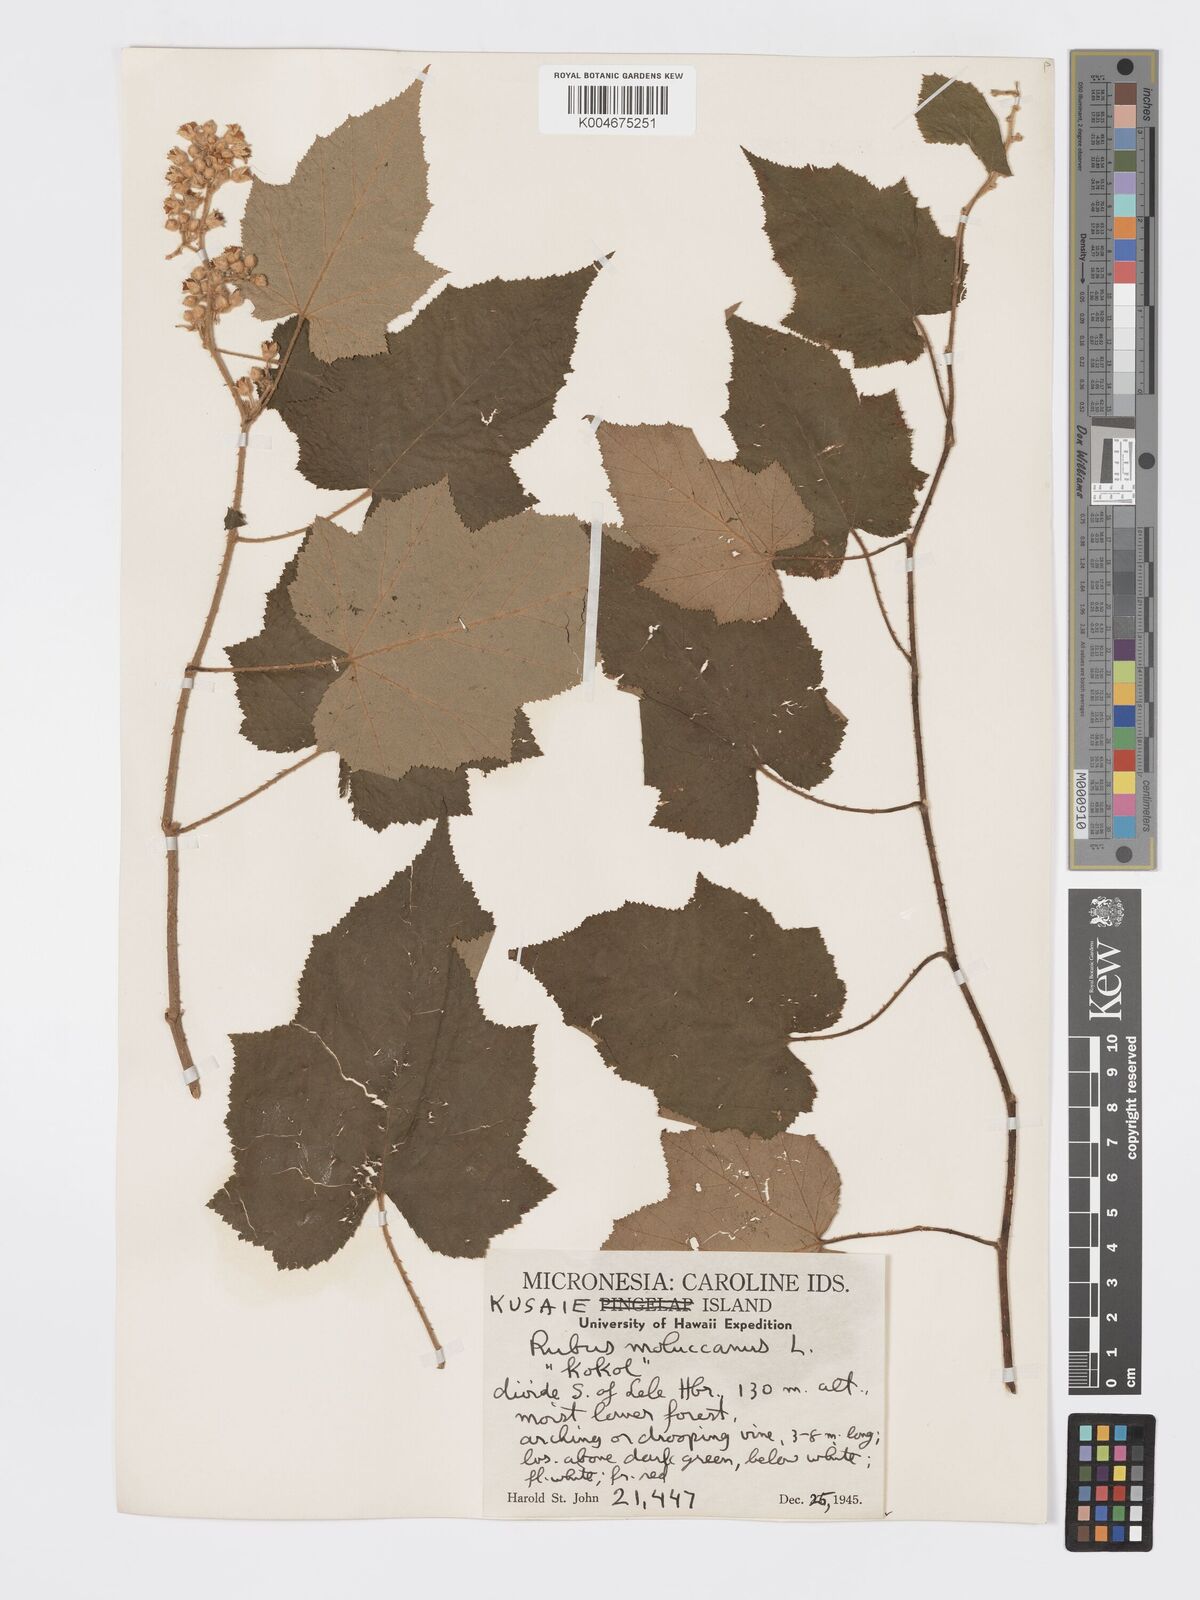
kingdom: Plantae
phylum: Tracheophyta
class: Magnoliopsida
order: Rosales
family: Rosaceae
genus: Rubus
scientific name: Rubus moluccanus
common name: Wild raspberry
